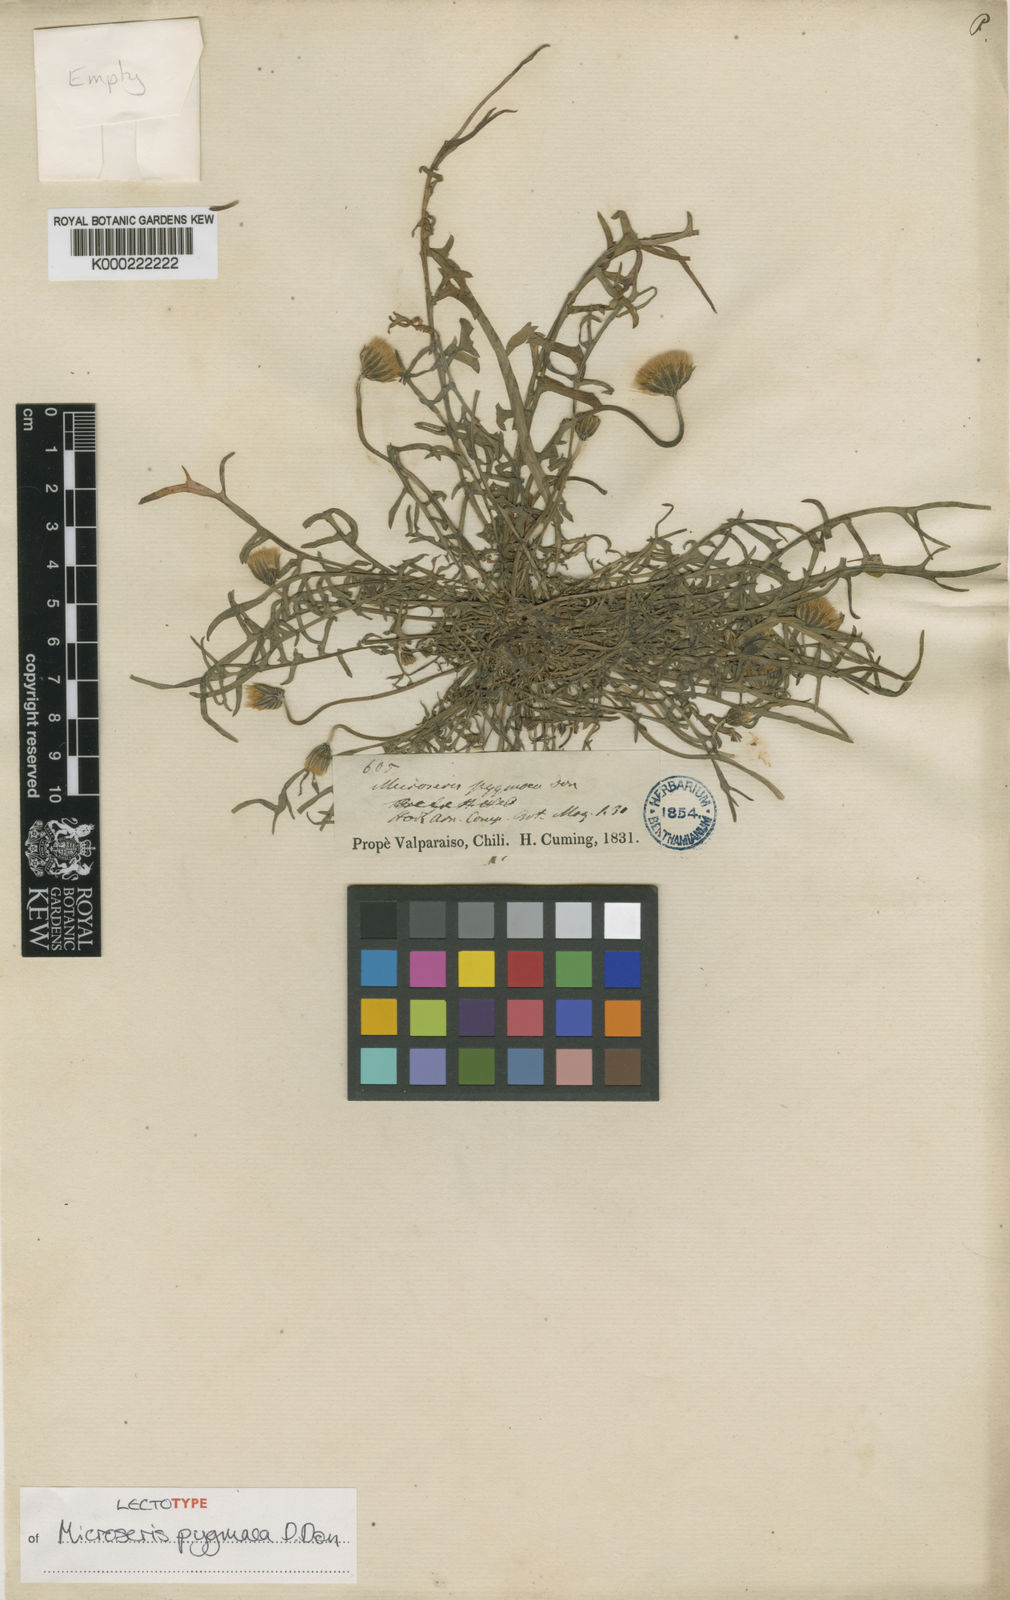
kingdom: Plantae
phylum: Tracheophyta
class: Magnoliopsida
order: Asterales
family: Asteraceae
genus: Microseris
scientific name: Microseris pygmaea
